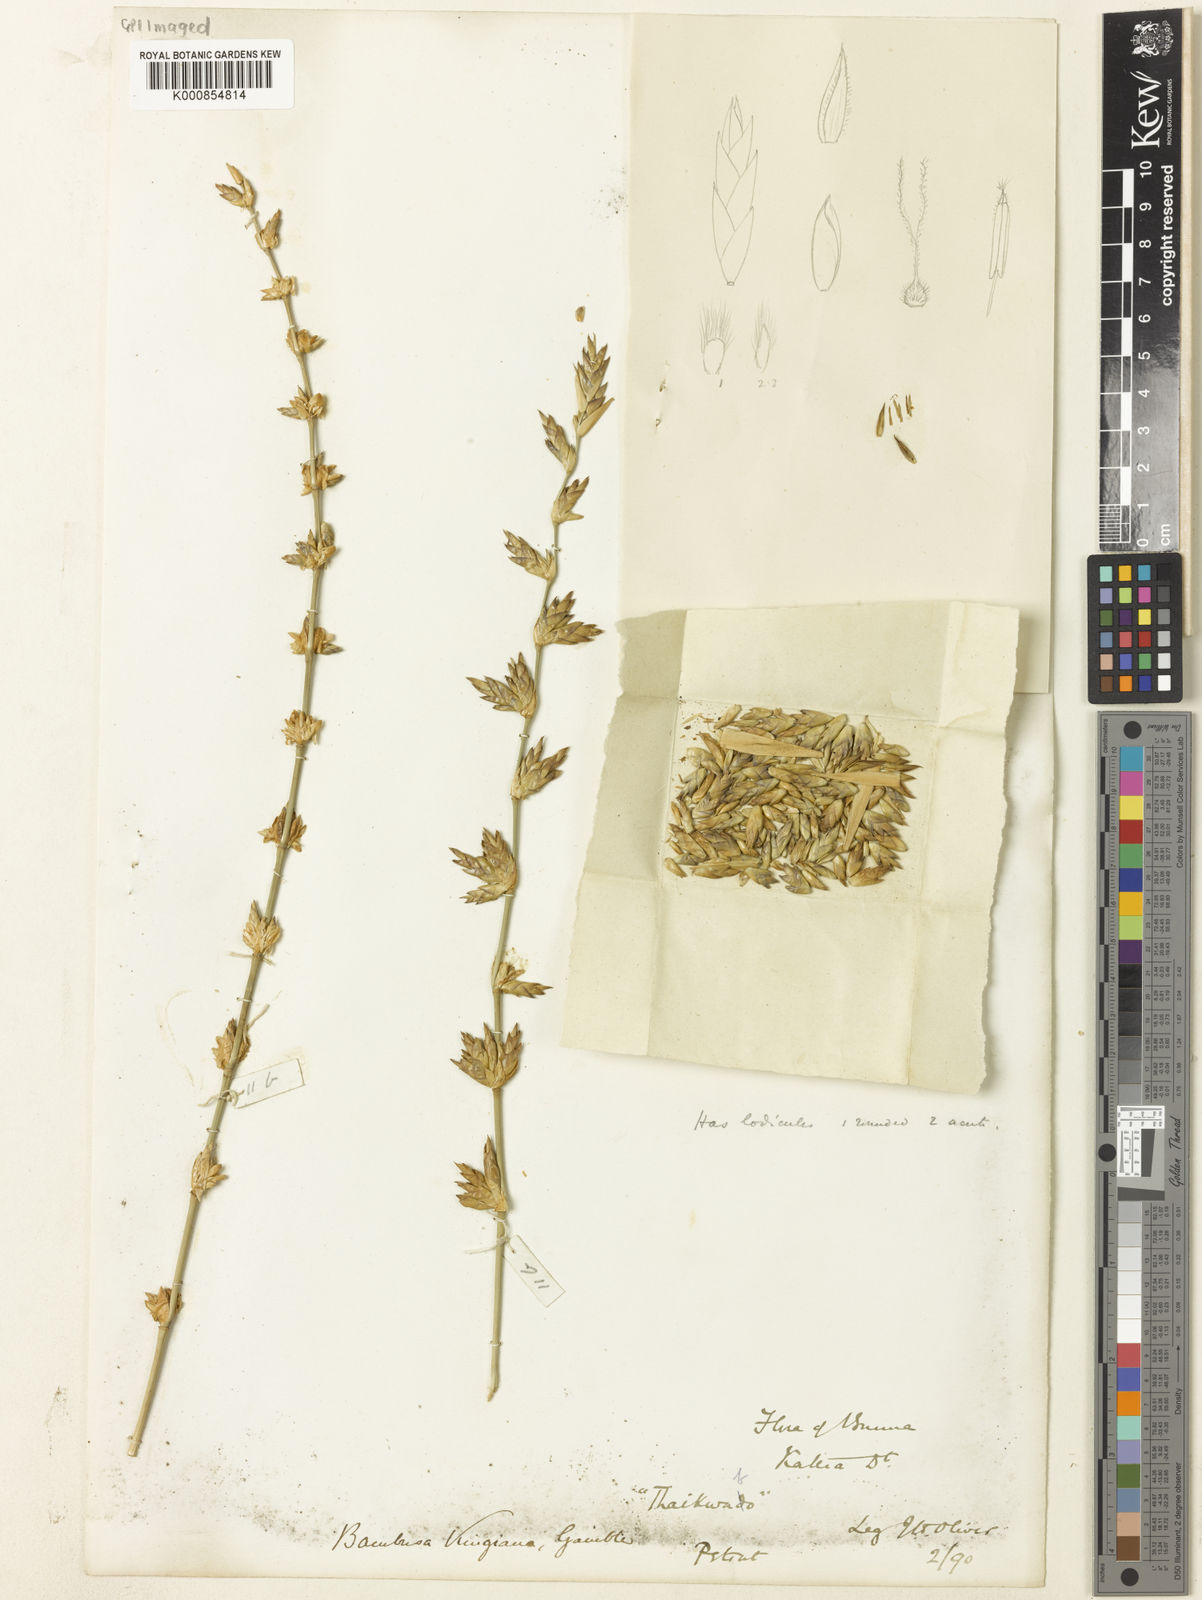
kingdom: Plantae
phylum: Tracheophyta
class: Liliopsida
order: Poales
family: Poaceae
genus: Bambusa
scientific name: Bambusa kingiana
